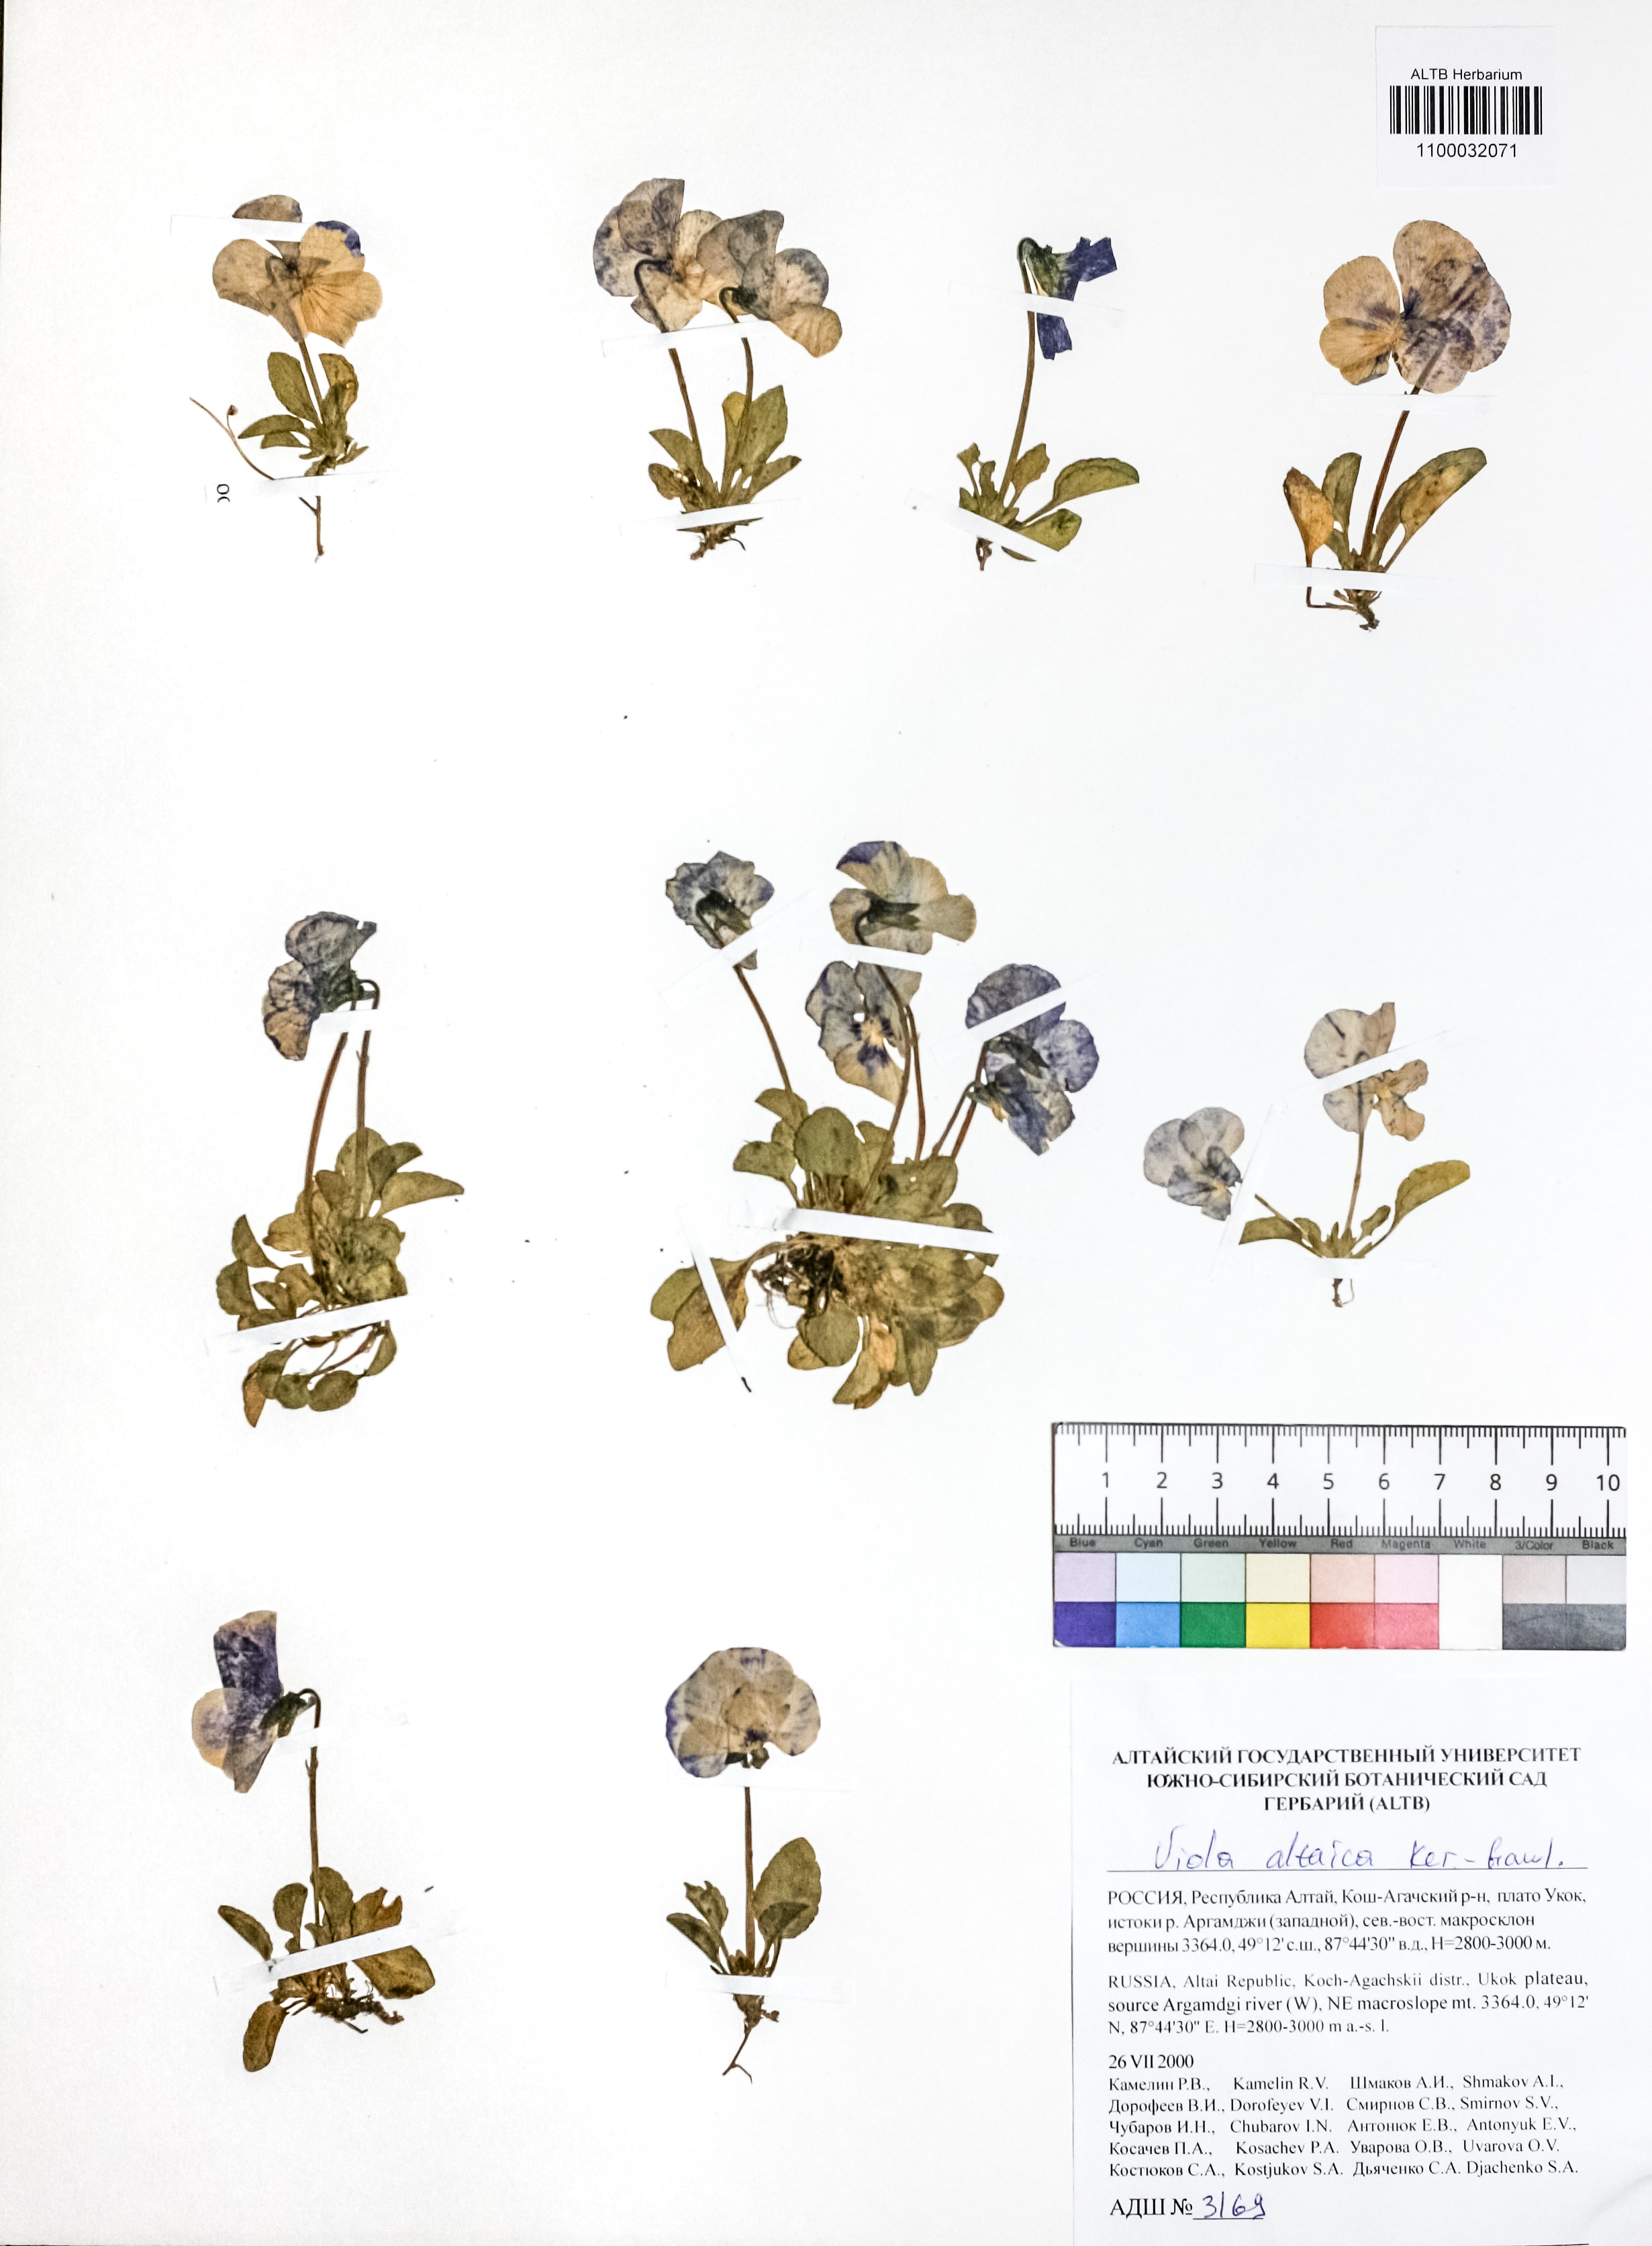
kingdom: Plantae
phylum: Tracheophyta
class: Magnoliopsida
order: Malpighiales
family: Violaceae
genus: Viola
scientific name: Viola altaica
